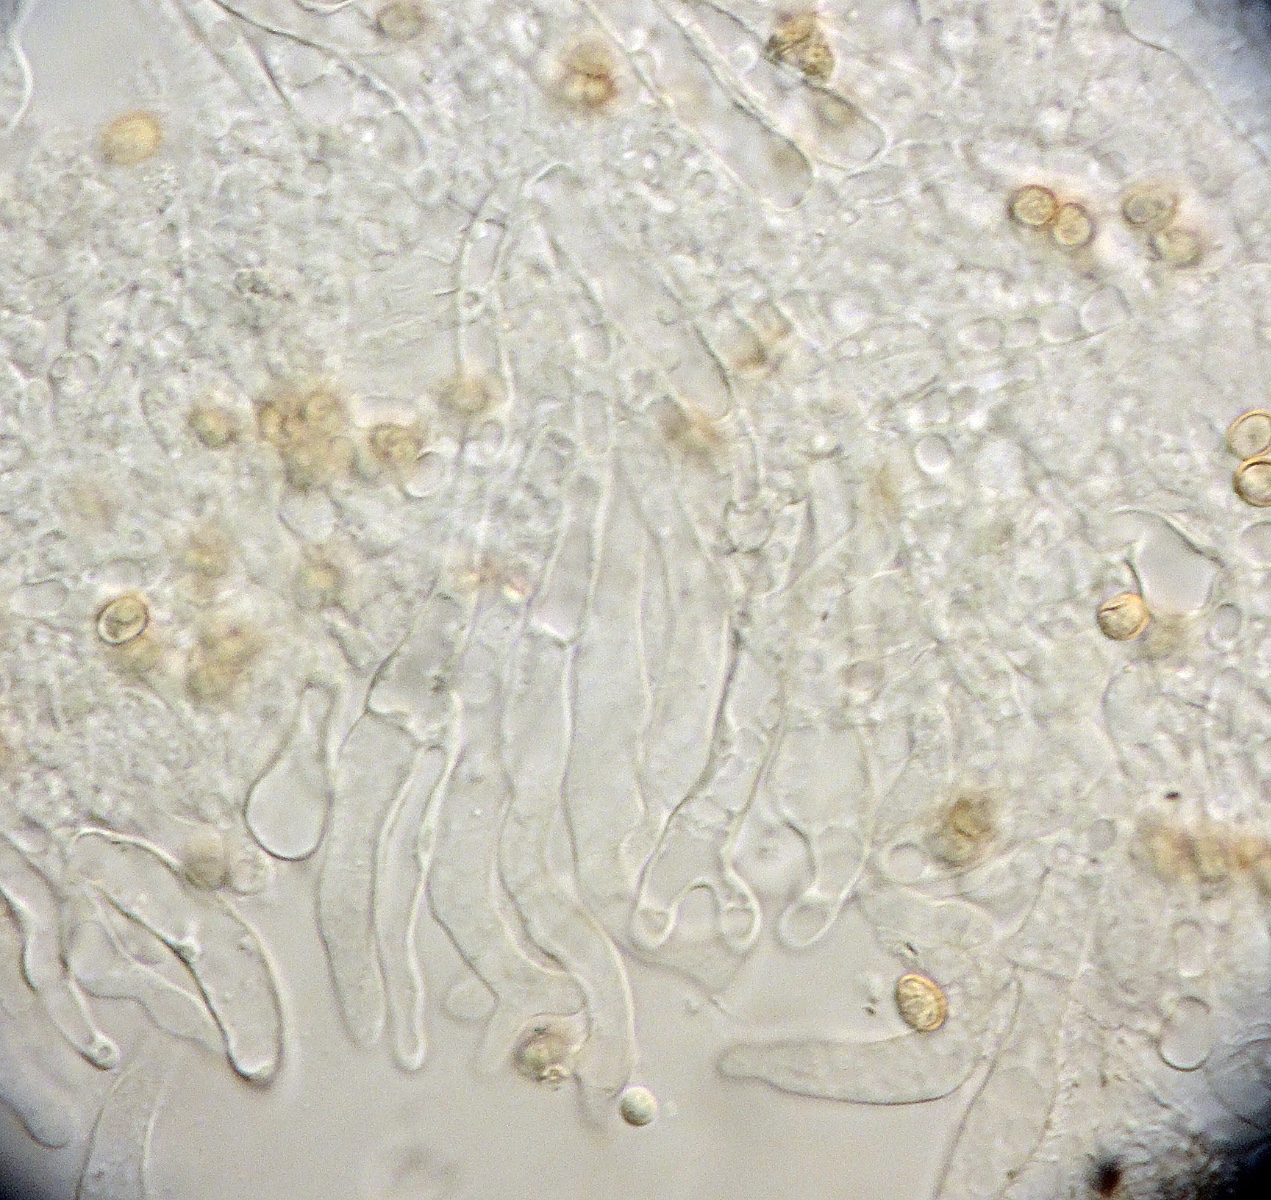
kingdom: Fungi
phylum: Basidiomycota
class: Agaricomycetes
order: Agaricales
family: Crepidotaceae
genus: Crepidotus
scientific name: Crepidotus cesatii
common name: almindelig muslingesvamp
